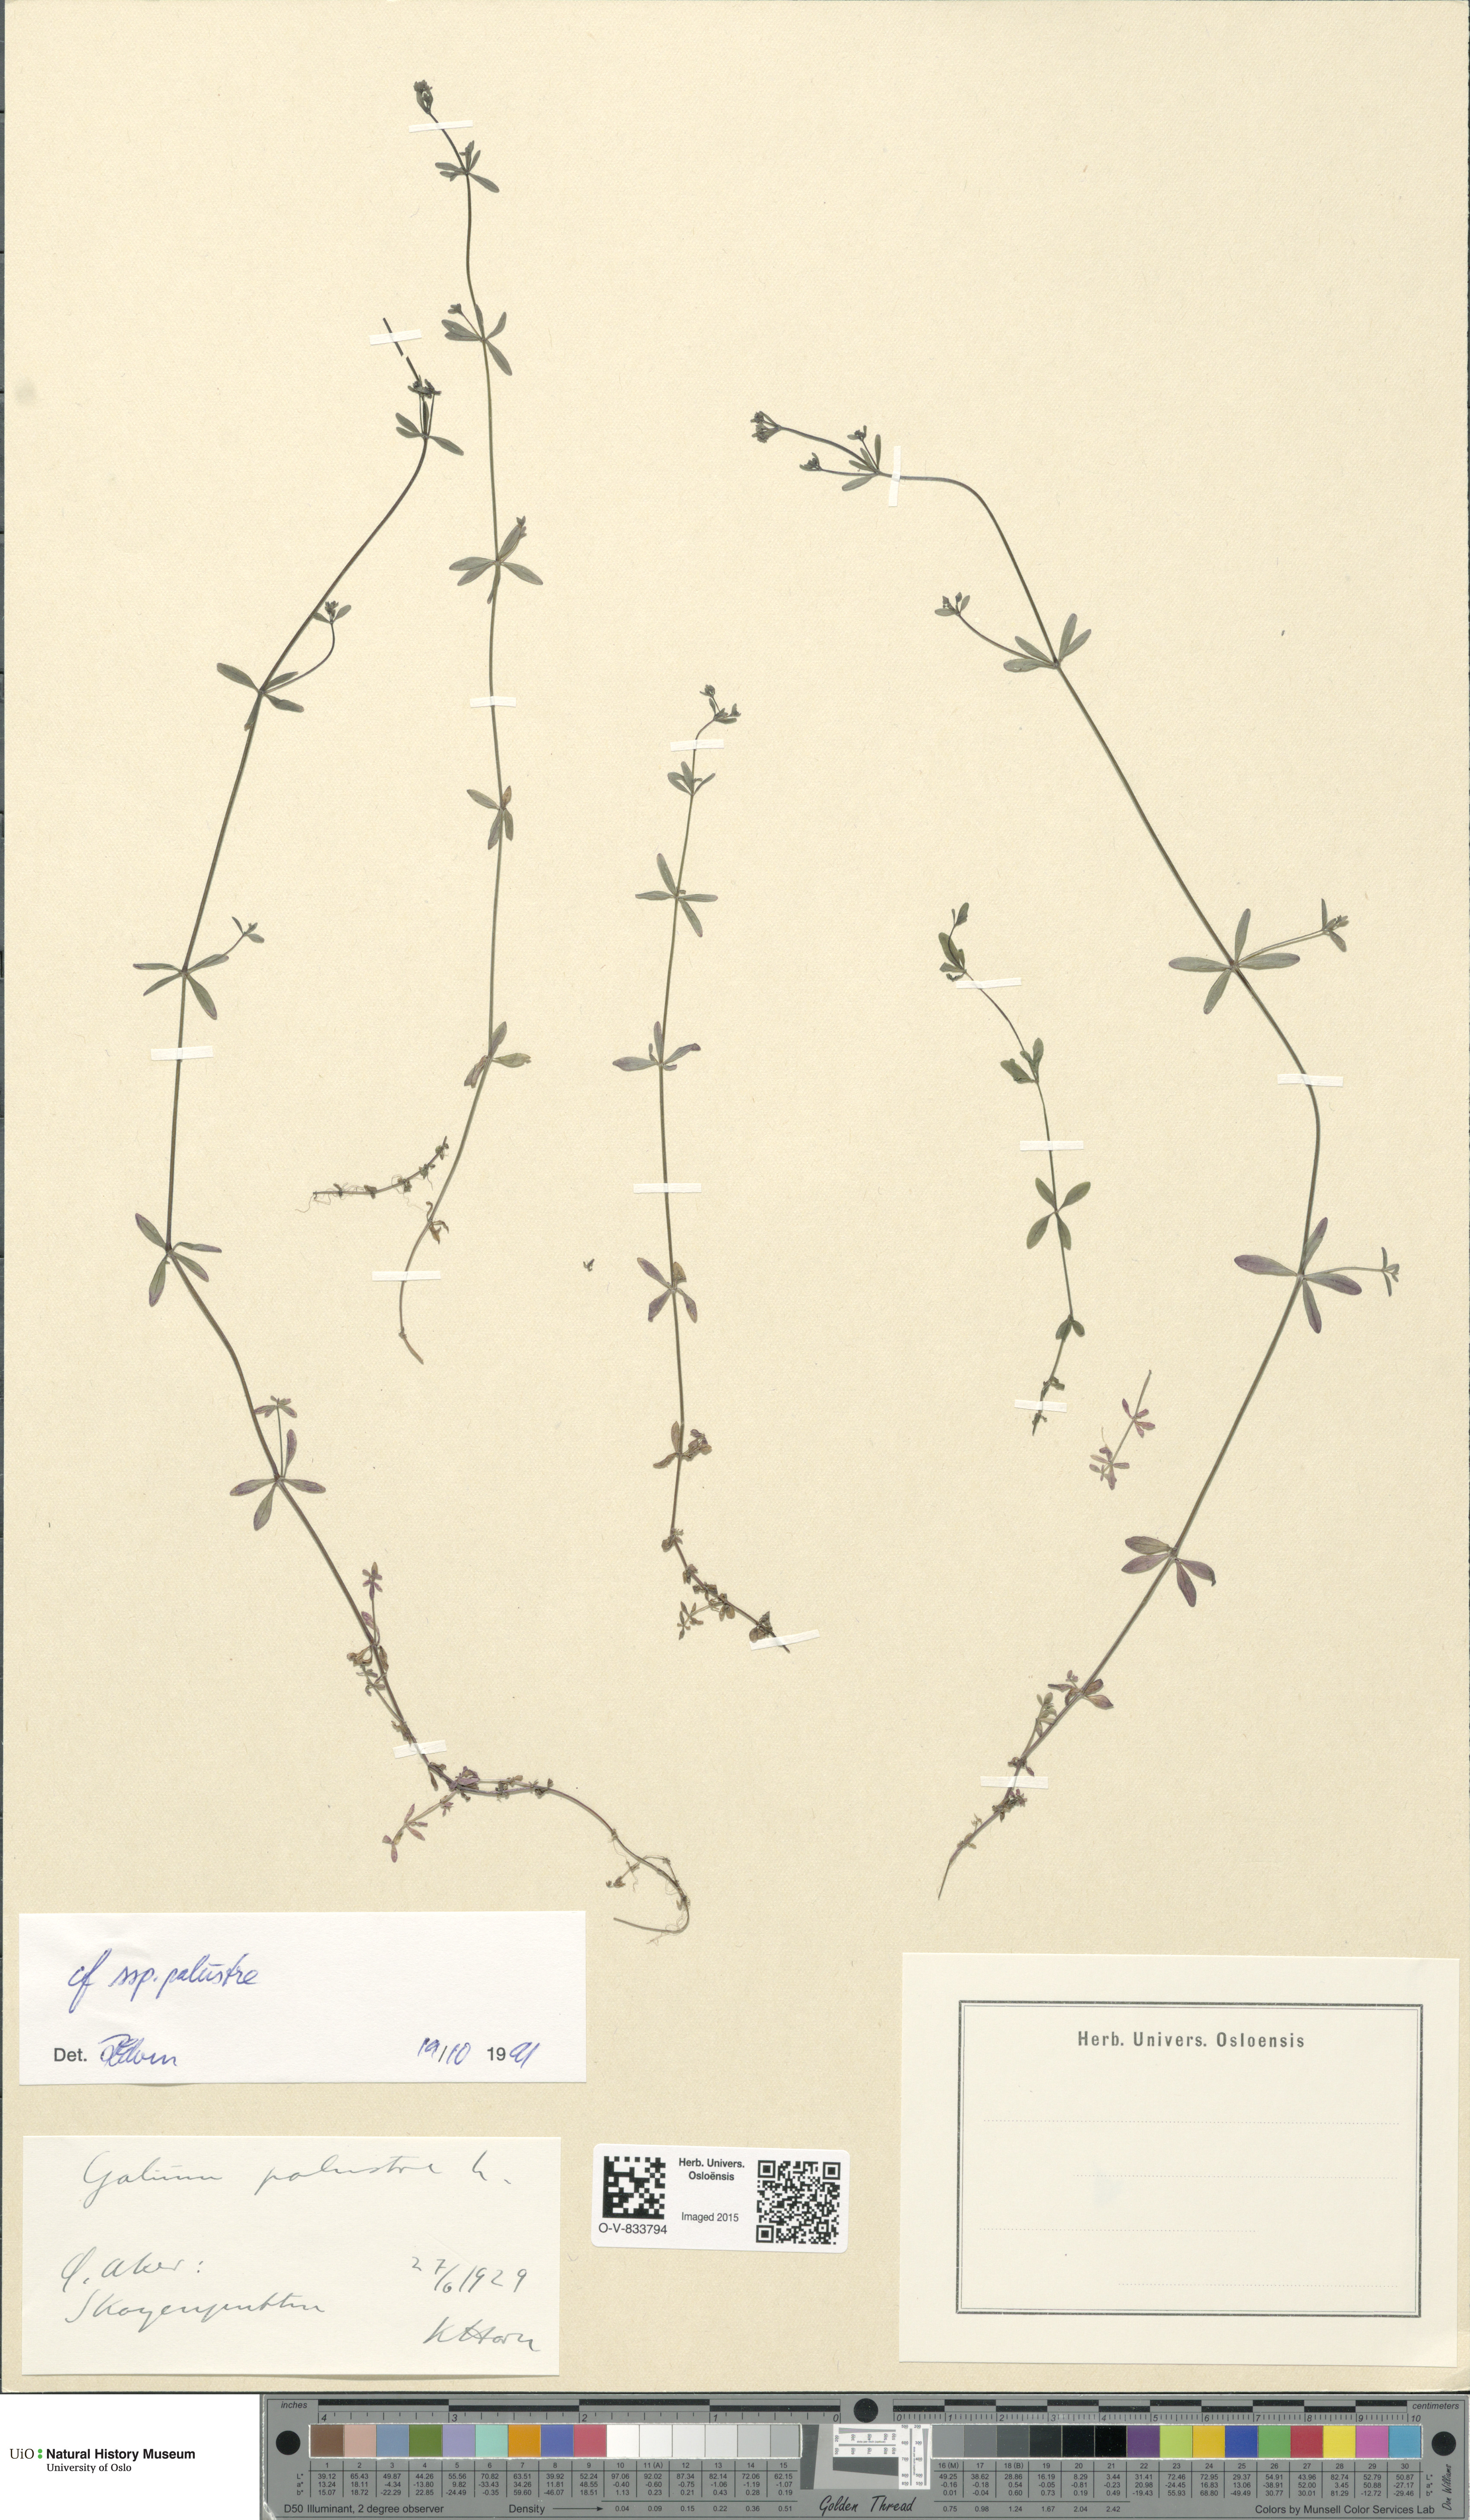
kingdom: Plantae
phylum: Tracheophyta
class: Magnoliopsida
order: Gentianales
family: Rubiaceae
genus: Galium
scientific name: Galium palustre
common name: Common marsh-bedstraw
